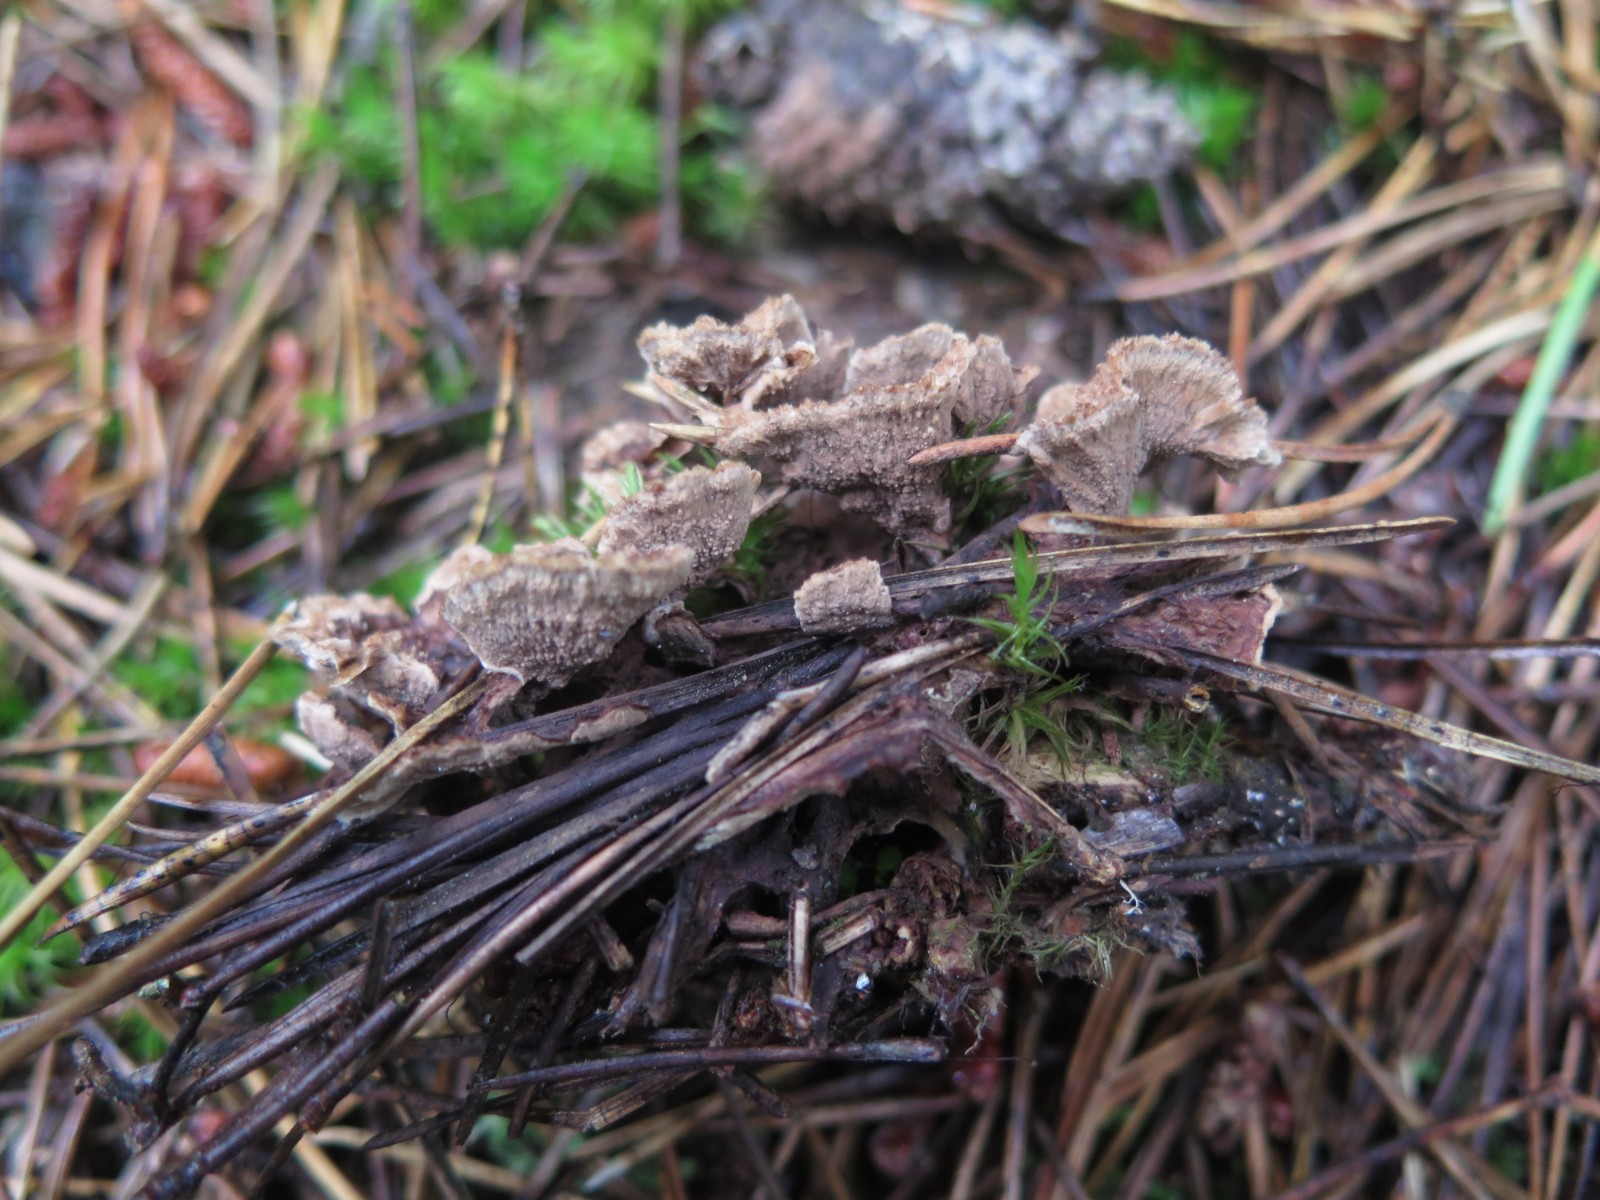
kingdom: Fungi
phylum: Basidiomycota
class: Agaricomycetes
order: Thelephorales
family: Thelephoraceae
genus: Thelephora
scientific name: Thelephora terrestris
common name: fliget frynsesvamp
